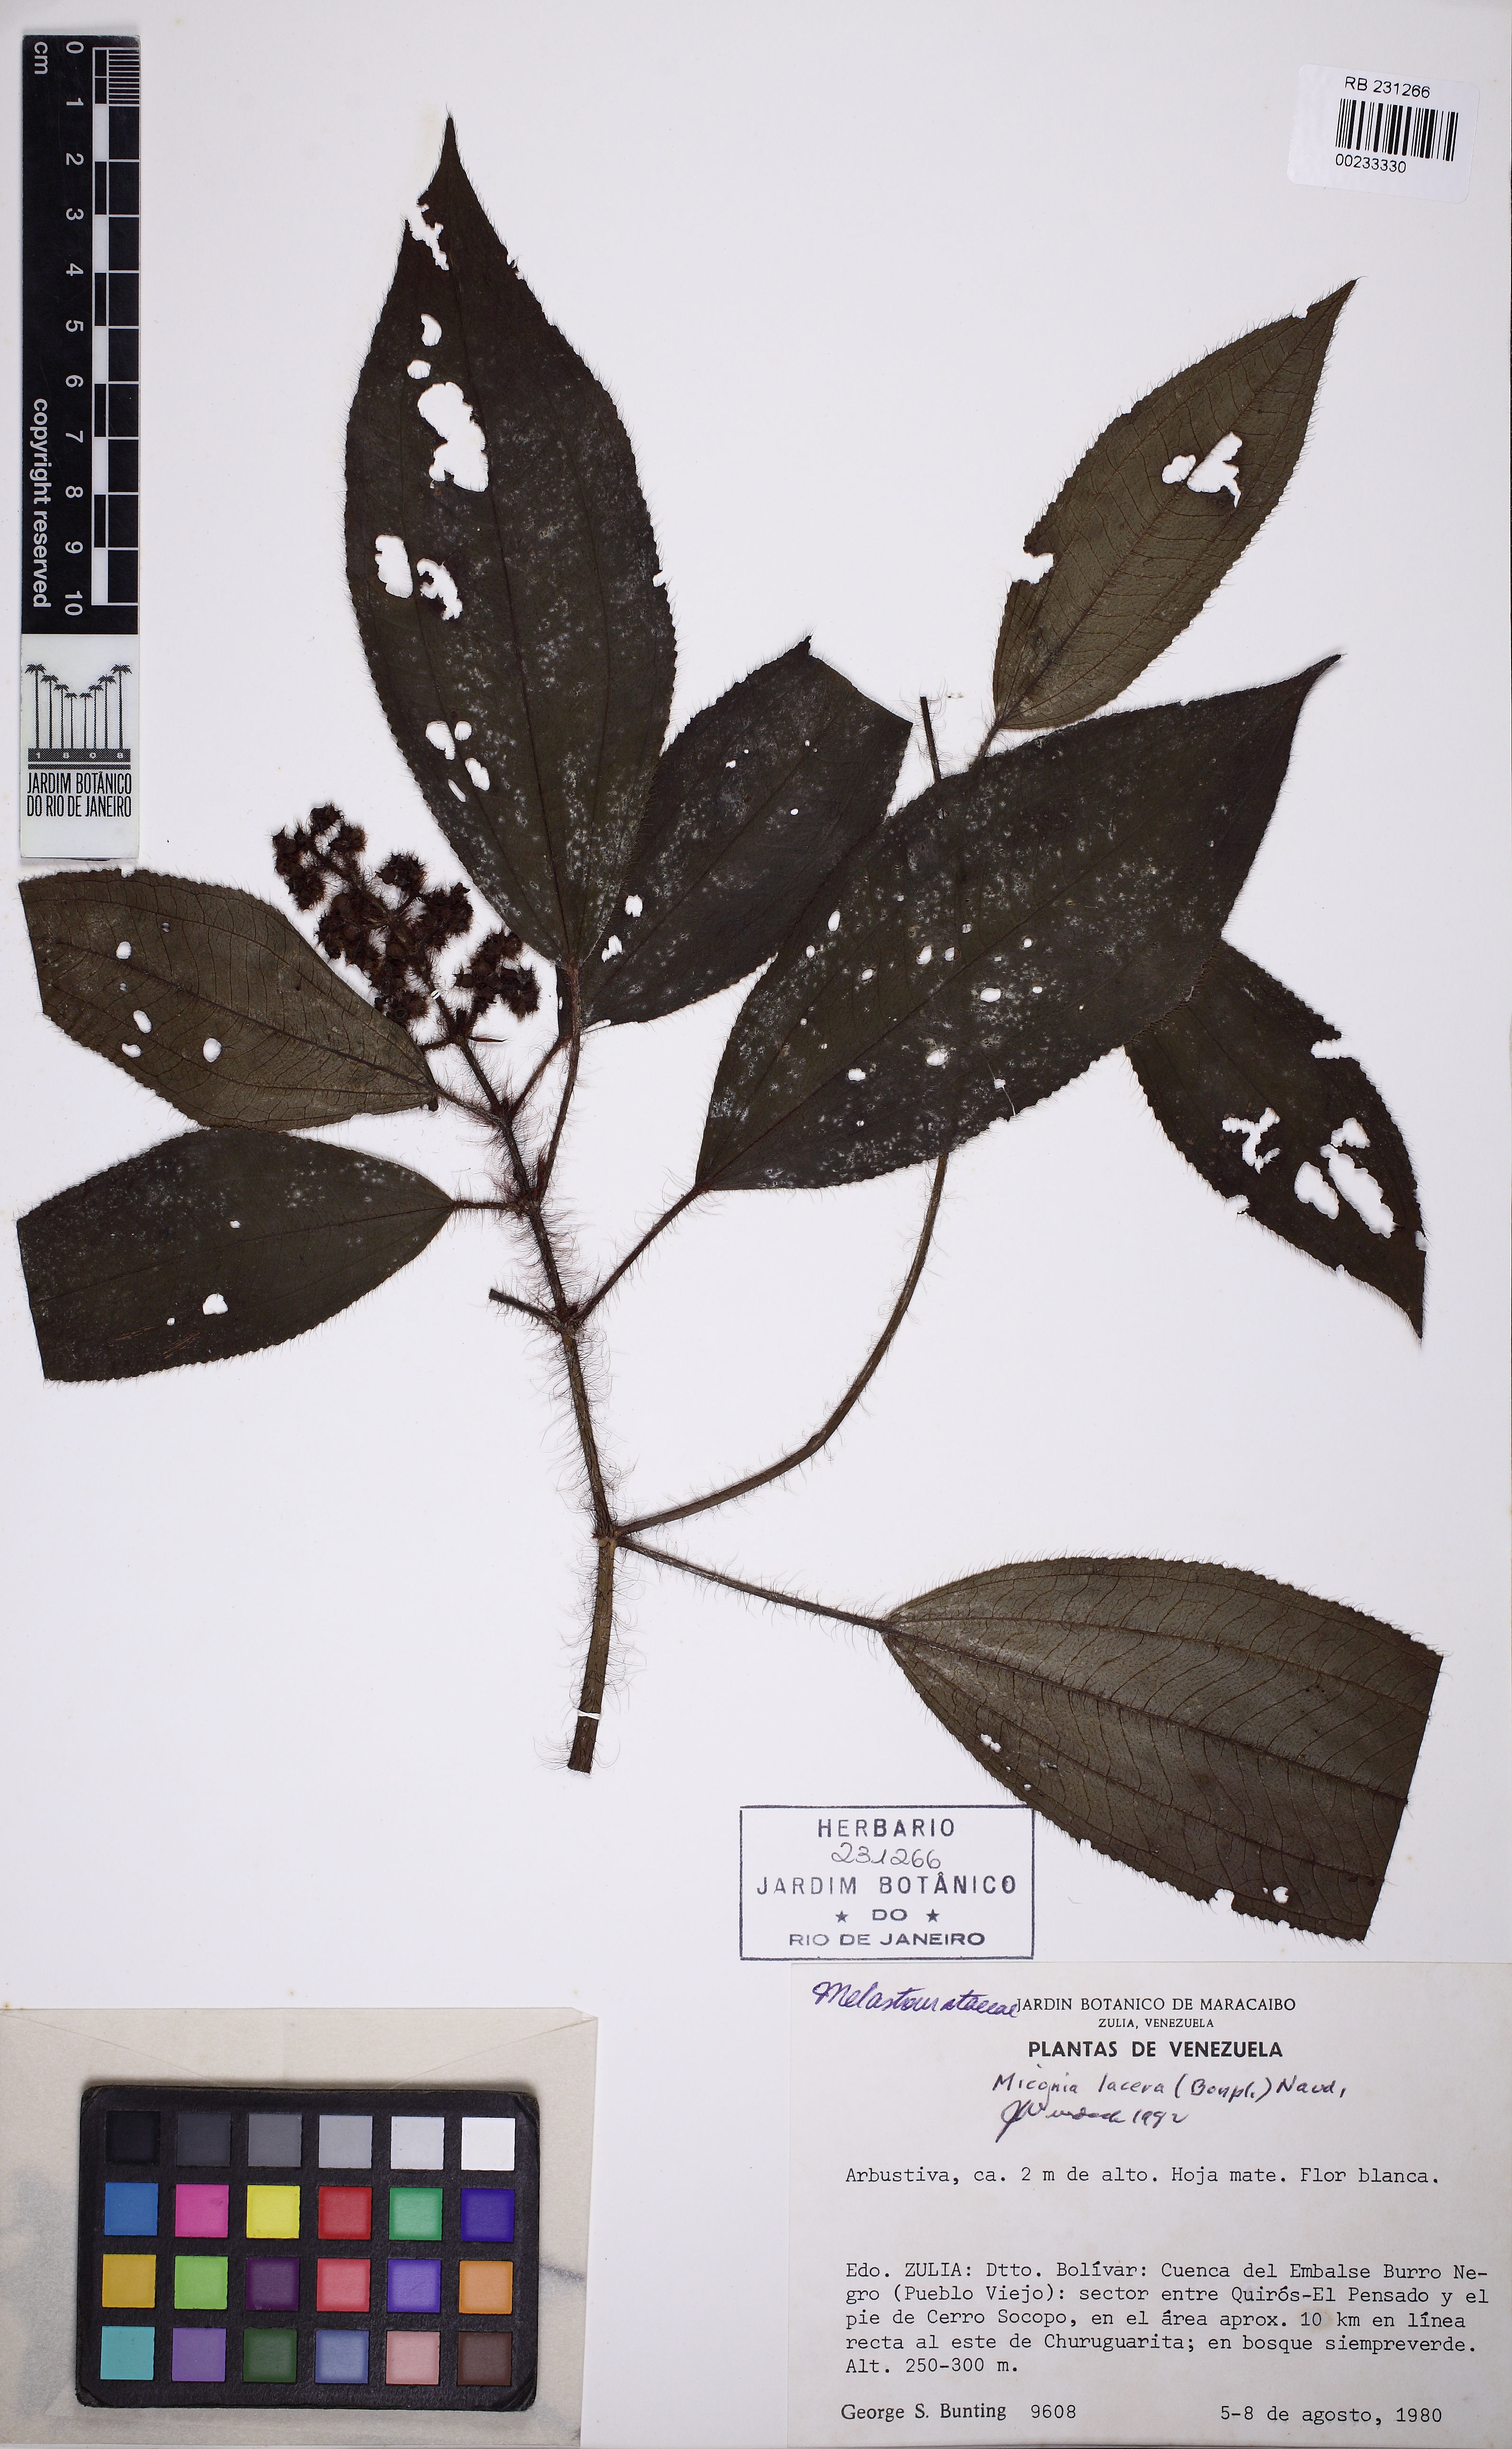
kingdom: Plantae
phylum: Tracheophyta
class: Magnoliopsida
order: Myrtales
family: Melastomataceae
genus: Miconia
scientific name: Miconia lacera
